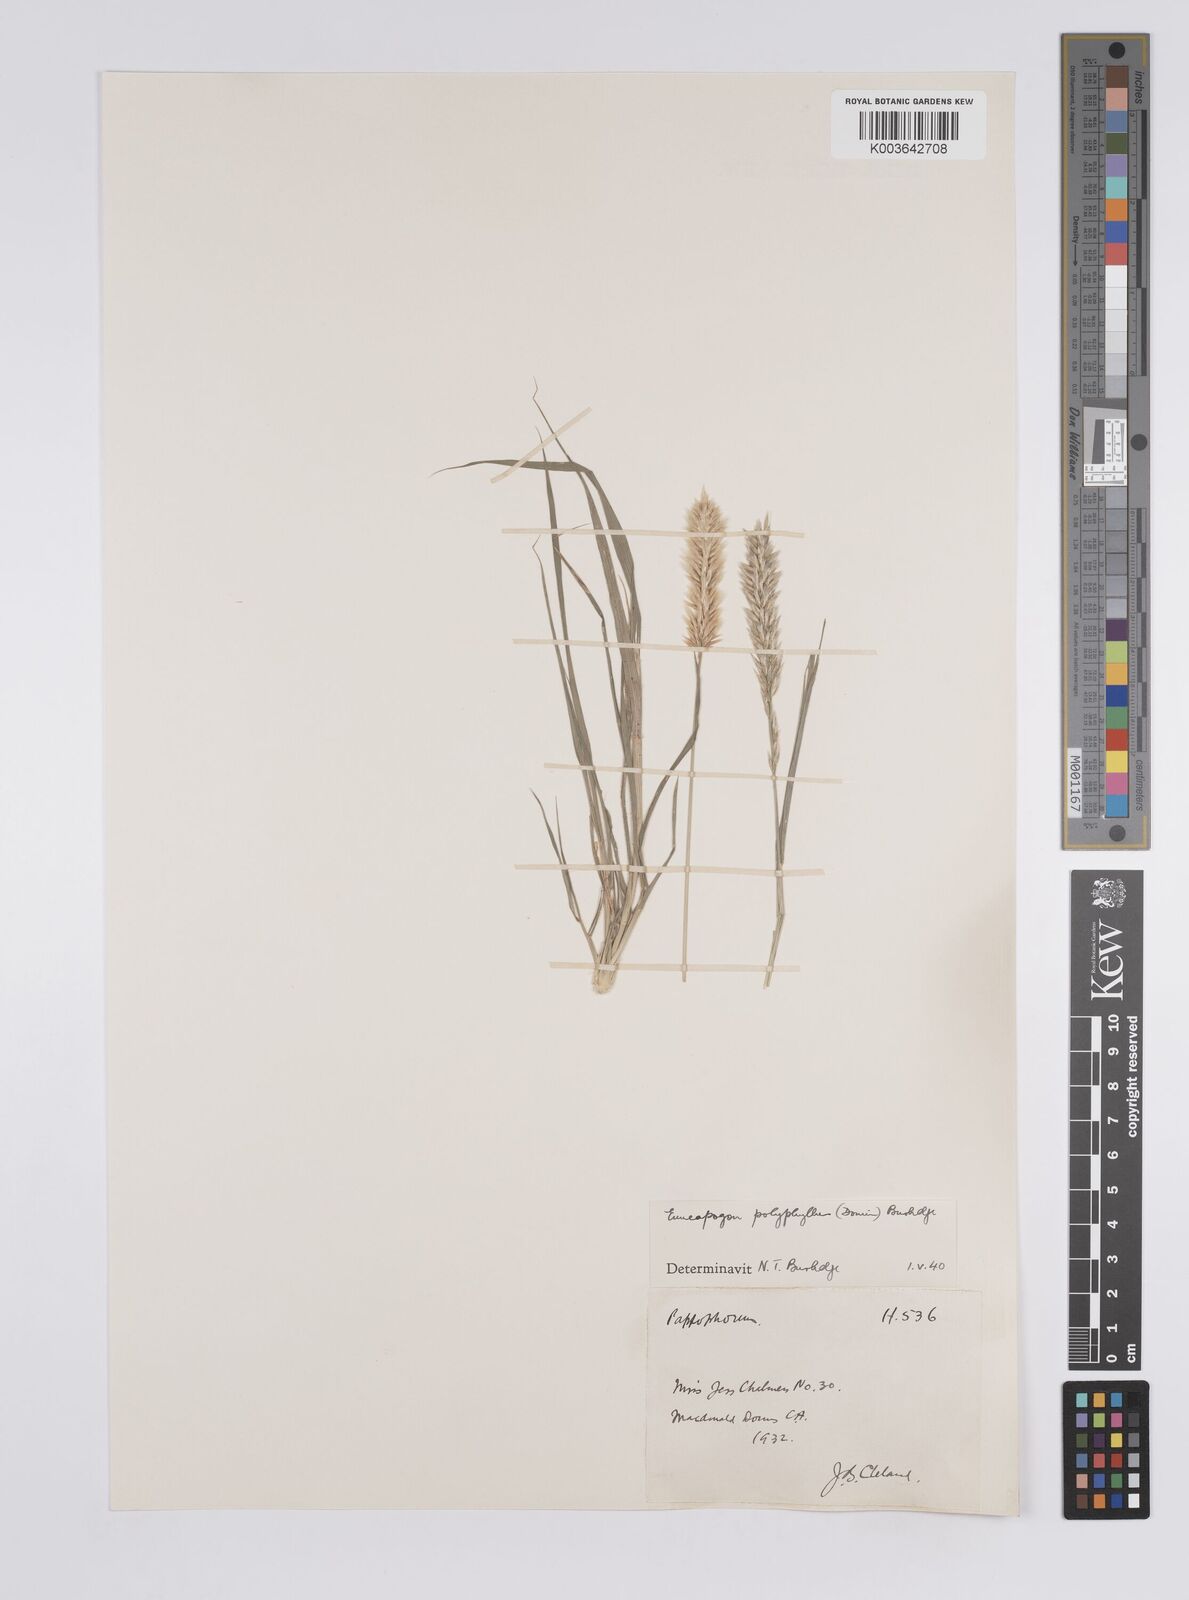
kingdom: Plantae
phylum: Tracheophyta
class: Liliopsida
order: Poales
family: Poaceae
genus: Enneapogon
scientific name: Enneapogon polyphyllus
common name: Leafy nineawn
